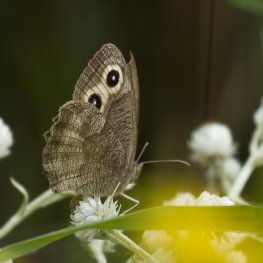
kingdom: Animalia
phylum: Arthropoda
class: Insecta
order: Lepidoptera
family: Nymphalidae
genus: Cercyonis
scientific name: Cercyonis pegala
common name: Common Wood-Nymph
